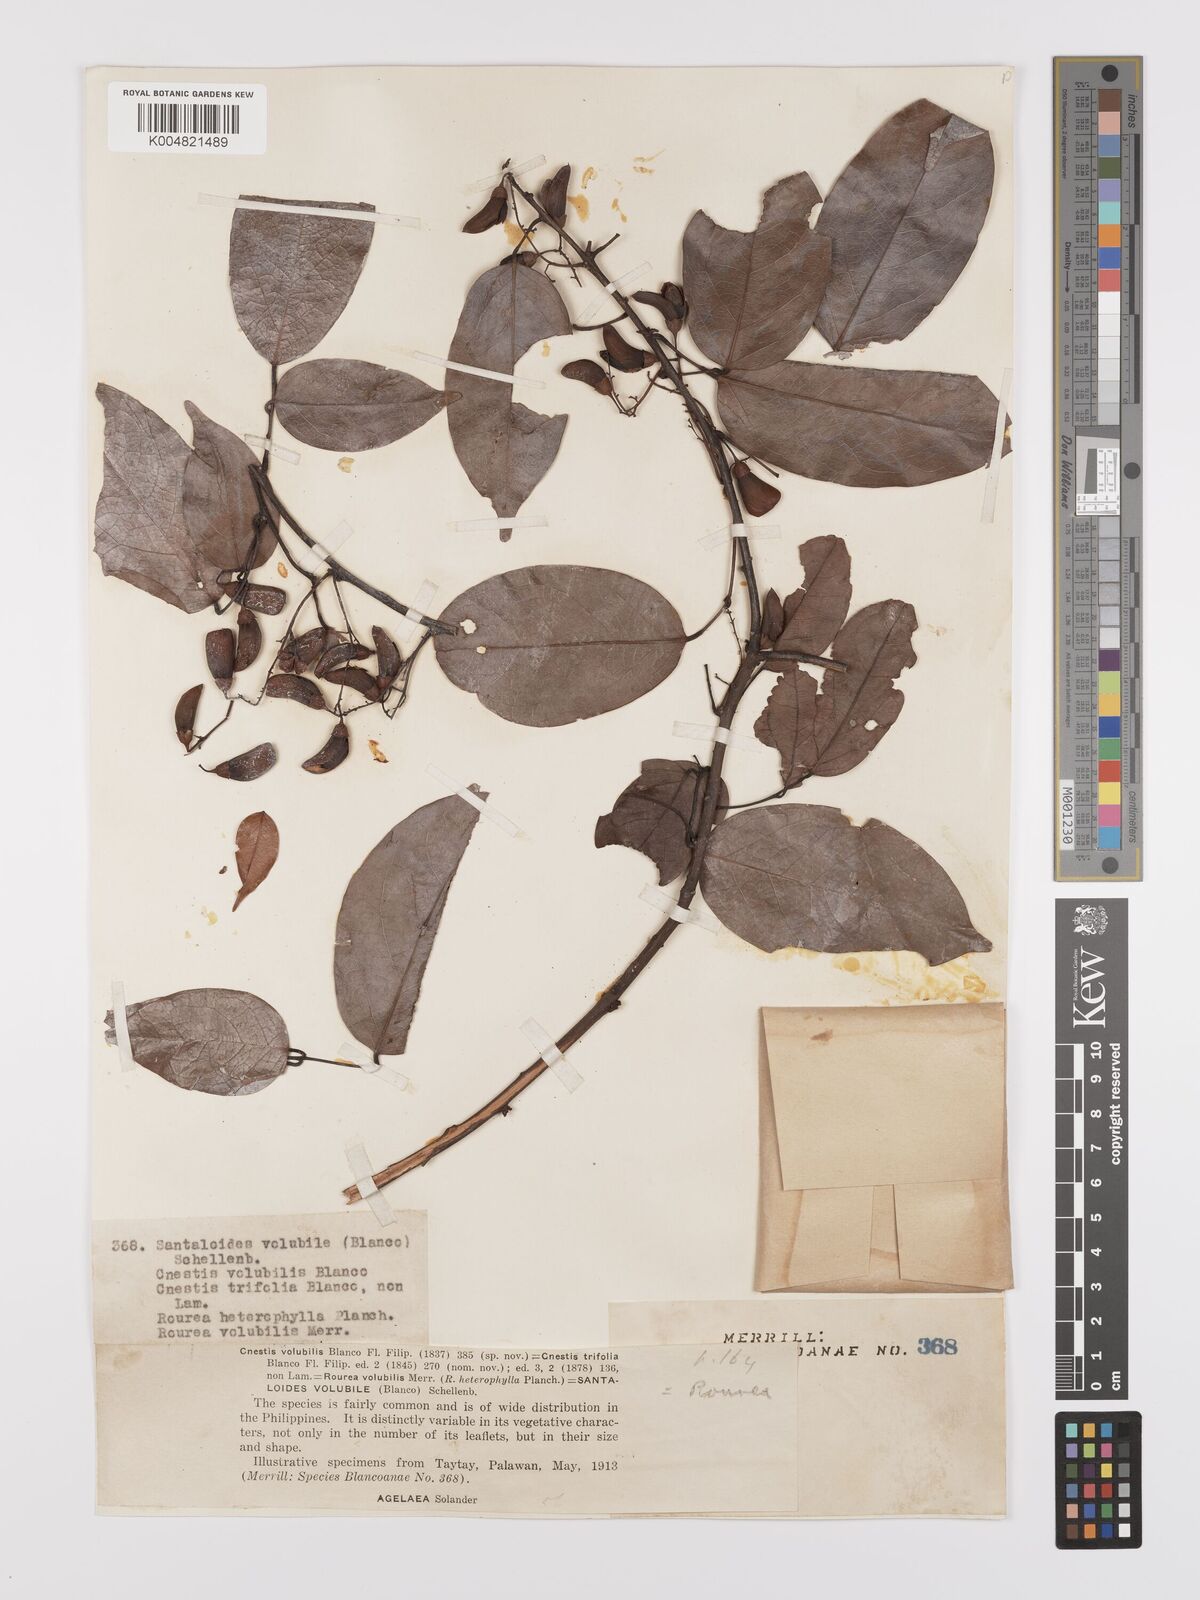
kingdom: Plantae
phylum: Tracheophyta
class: Magnoliopsida
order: Oxalidales
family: Connaraceae
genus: Rourea
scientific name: Rourea minor
